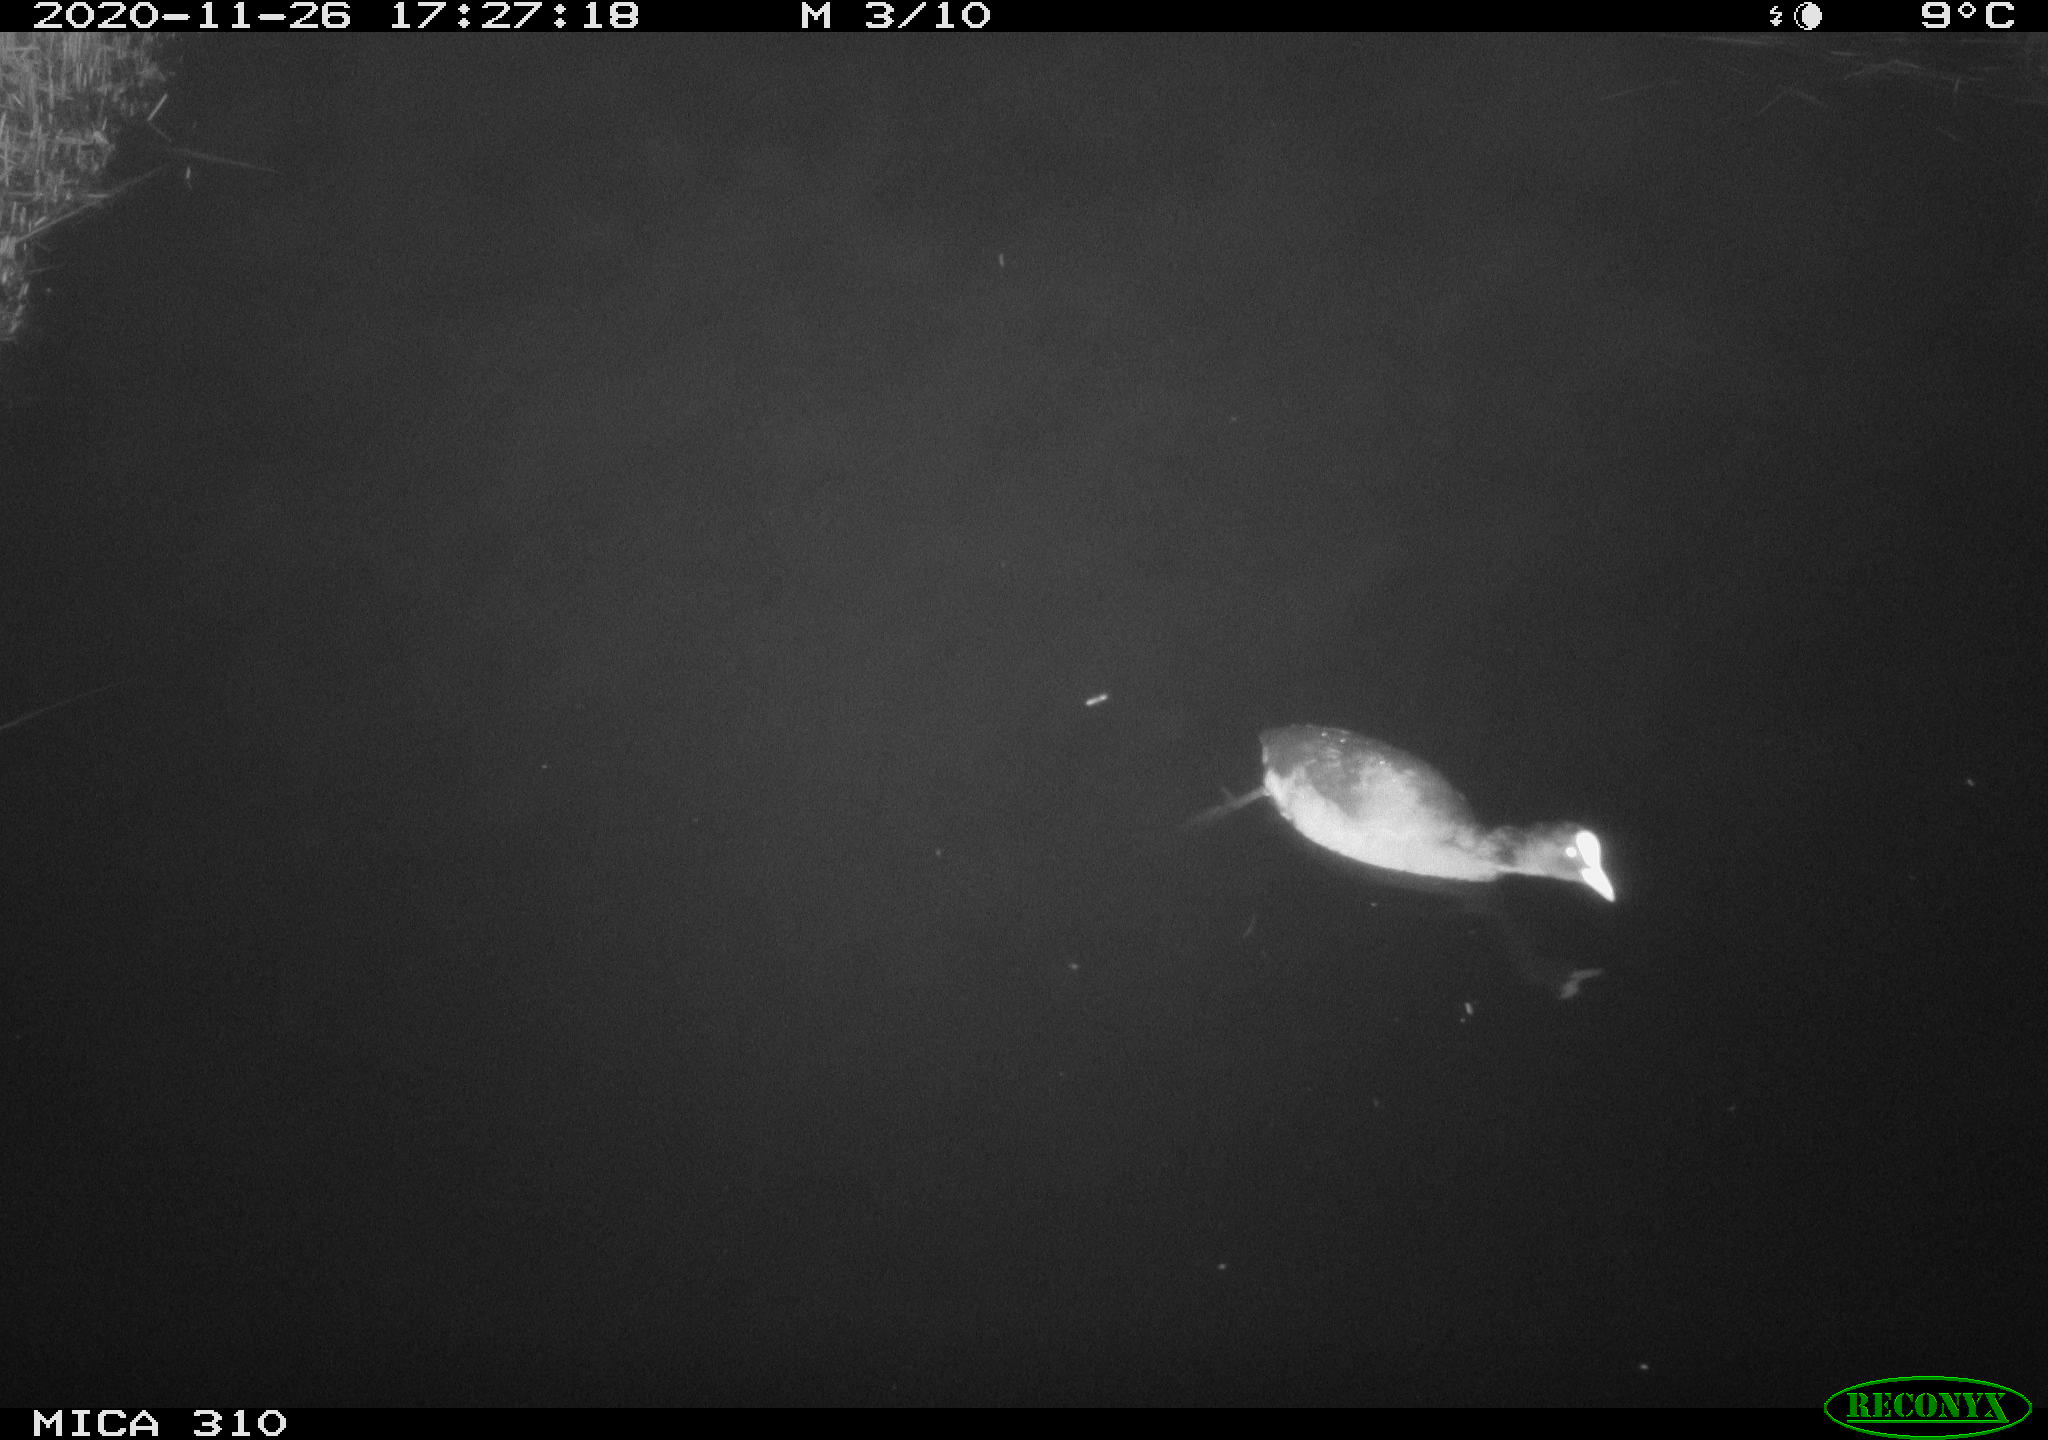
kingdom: Animalia
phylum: Chordata
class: Aves
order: Gruiformes
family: Rallidae
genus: Fulica
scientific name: Fulica atra
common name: Eurasian coot
